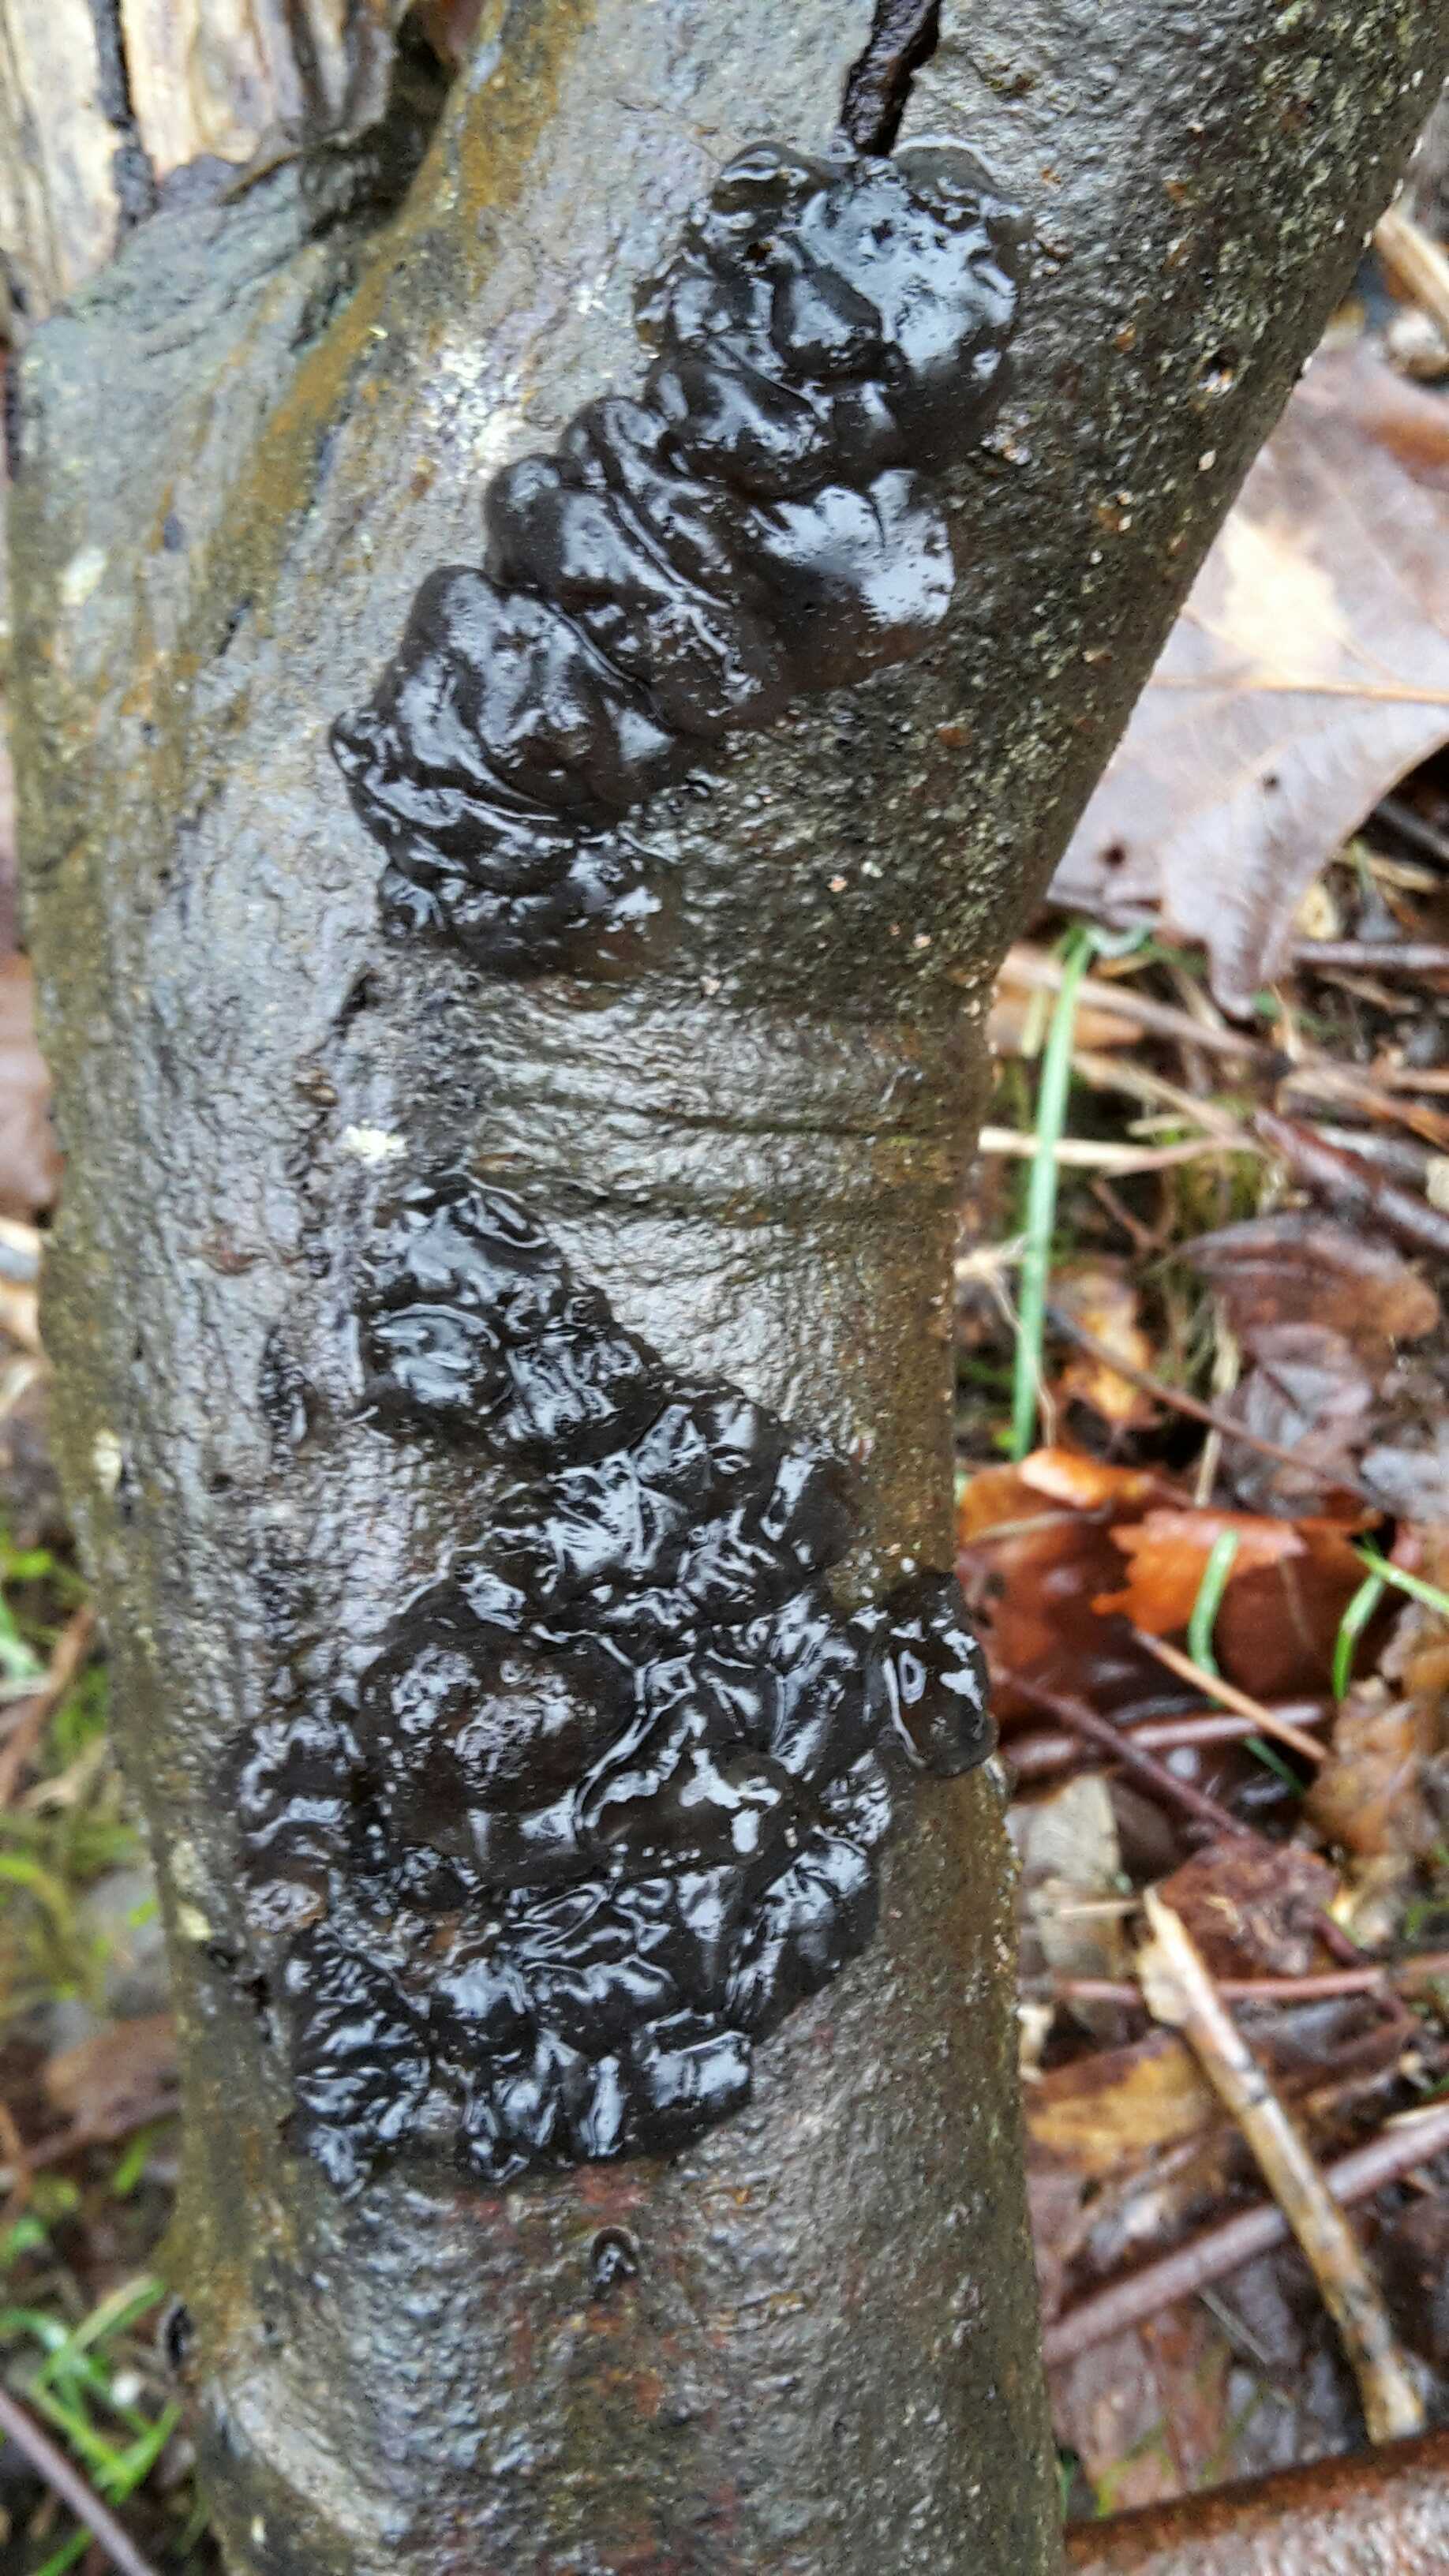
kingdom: Fungi
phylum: Basidiomycota
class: Agaricomycetes
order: Auriculariales
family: Auriculariaceae
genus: Exidia
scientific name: Exidia nigricans
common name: almindelig bævretop
